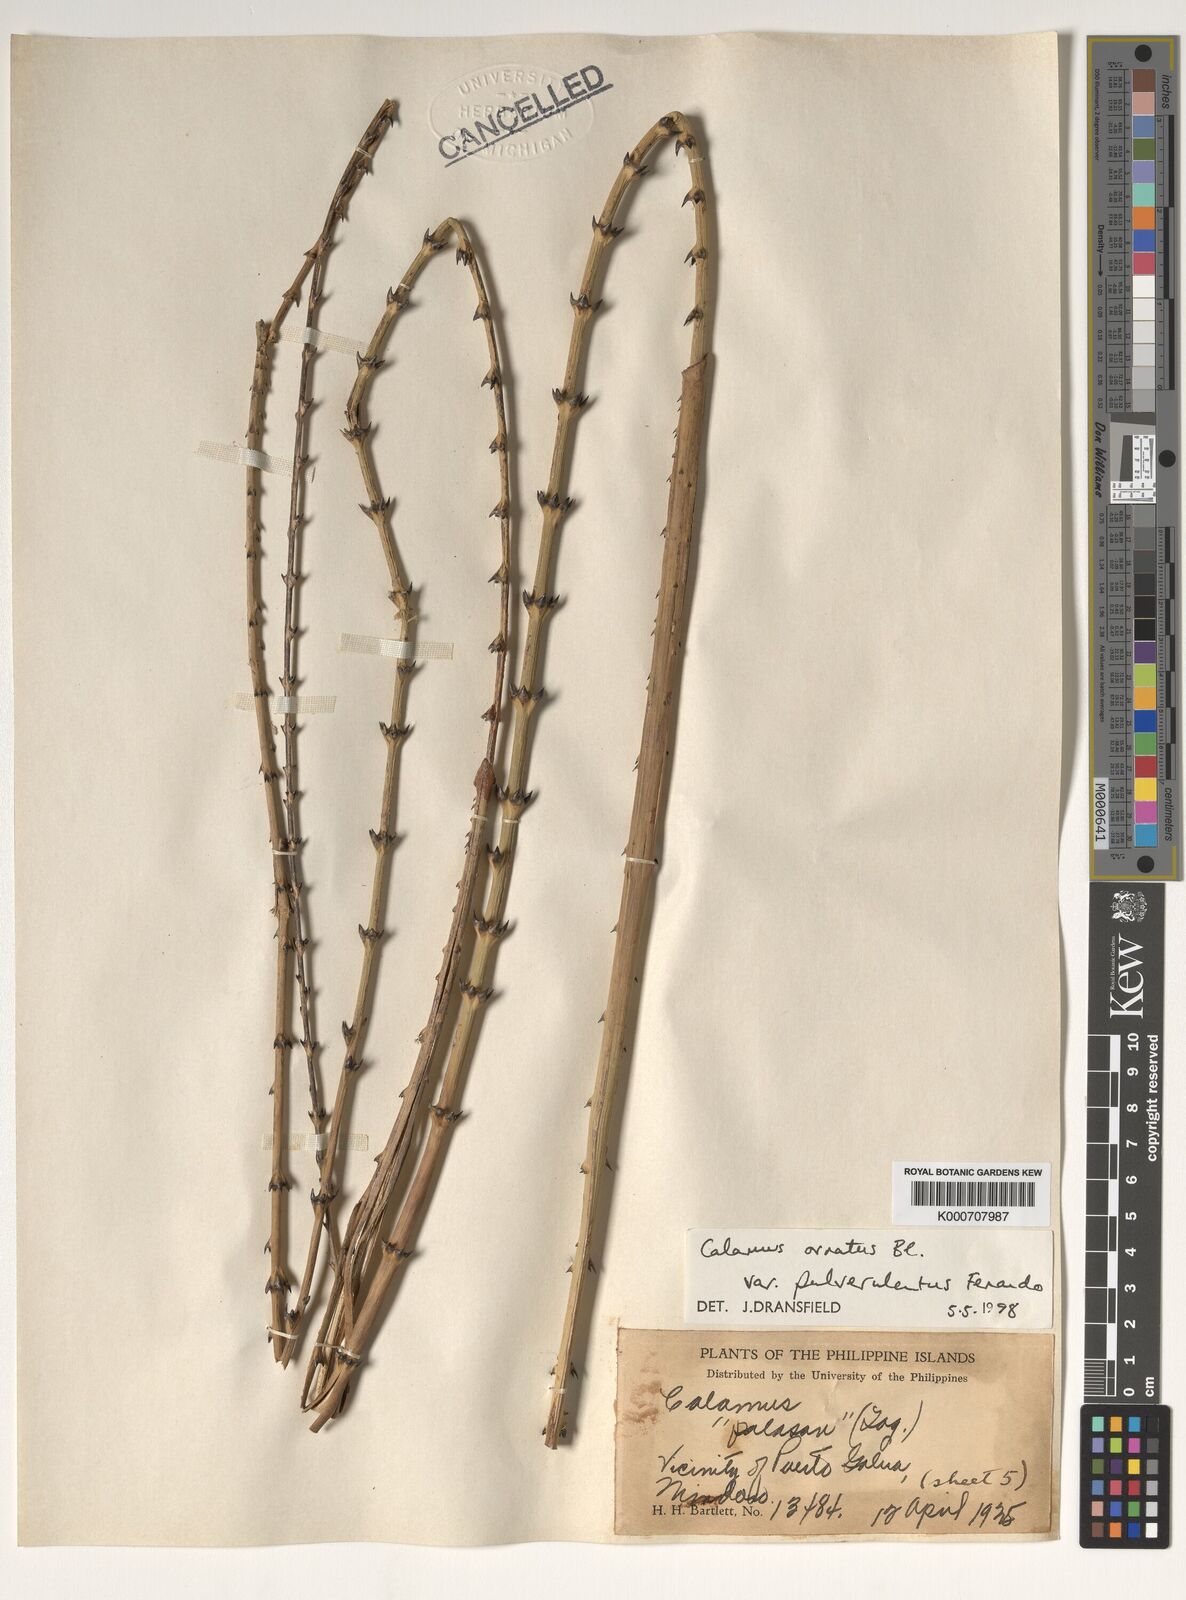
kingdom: Plantae
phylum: Tracheophyta
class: Liliopsida
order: Arecales
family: Arecaceae
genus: Calamus
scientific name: Calamus ornatus
